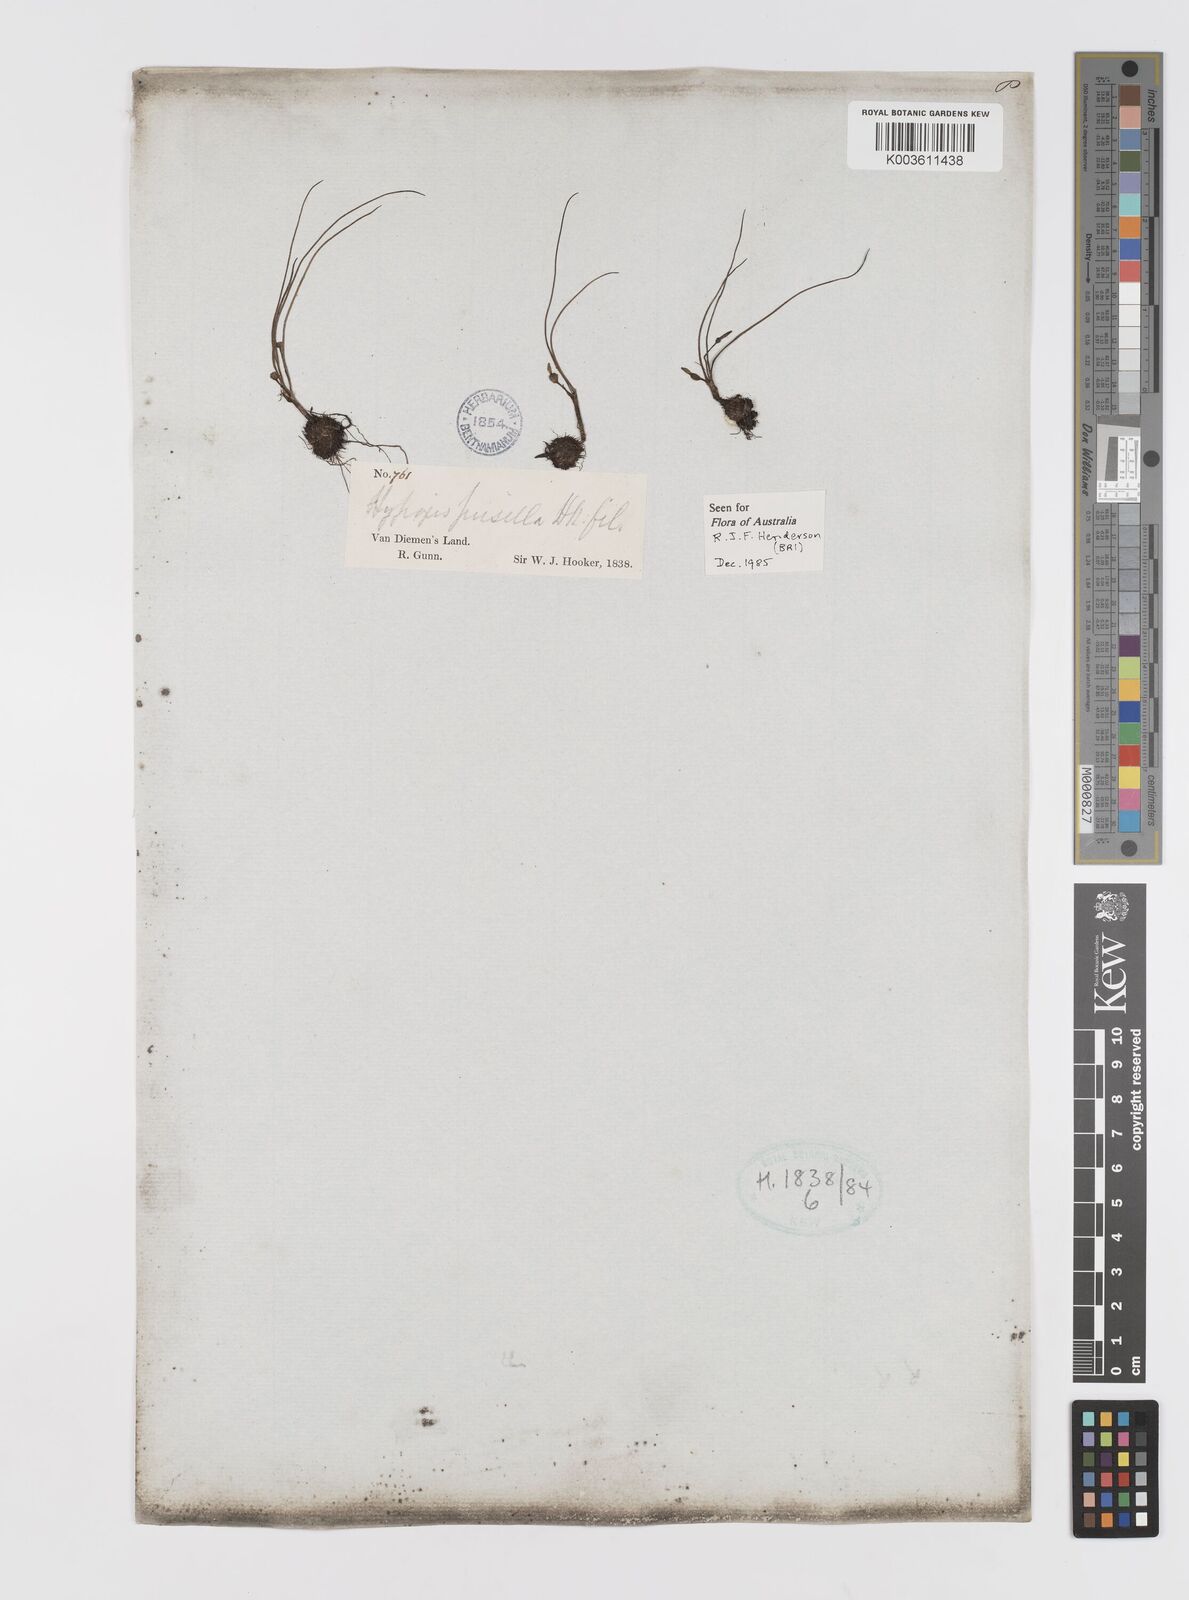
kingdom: Plantae
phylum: Tracheophyta
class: Liliopsida
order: Asparagales
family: Hypoxidaceae
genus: Pauridia
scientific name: Pauridia glabella
